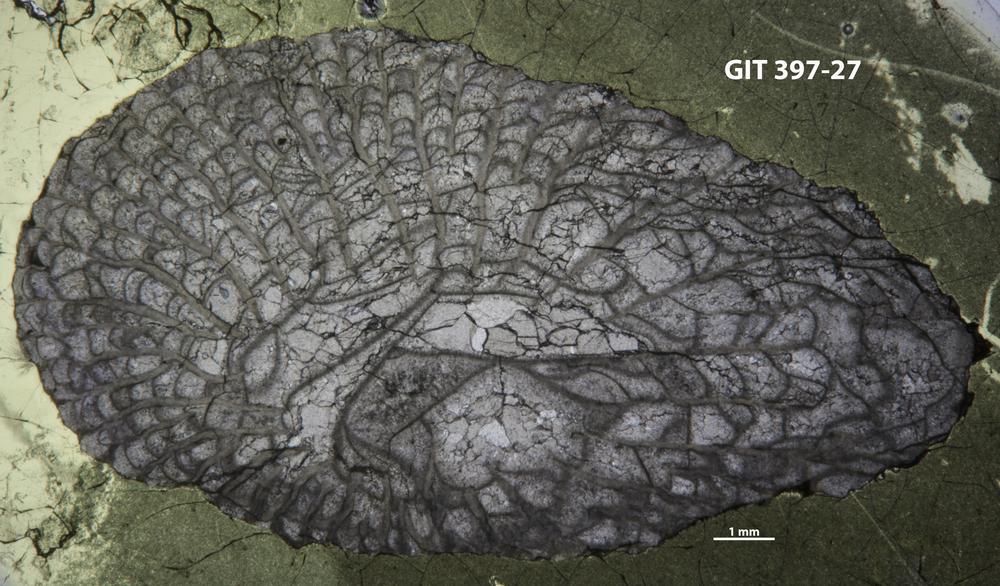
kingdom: Animalia
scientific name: Animalia
